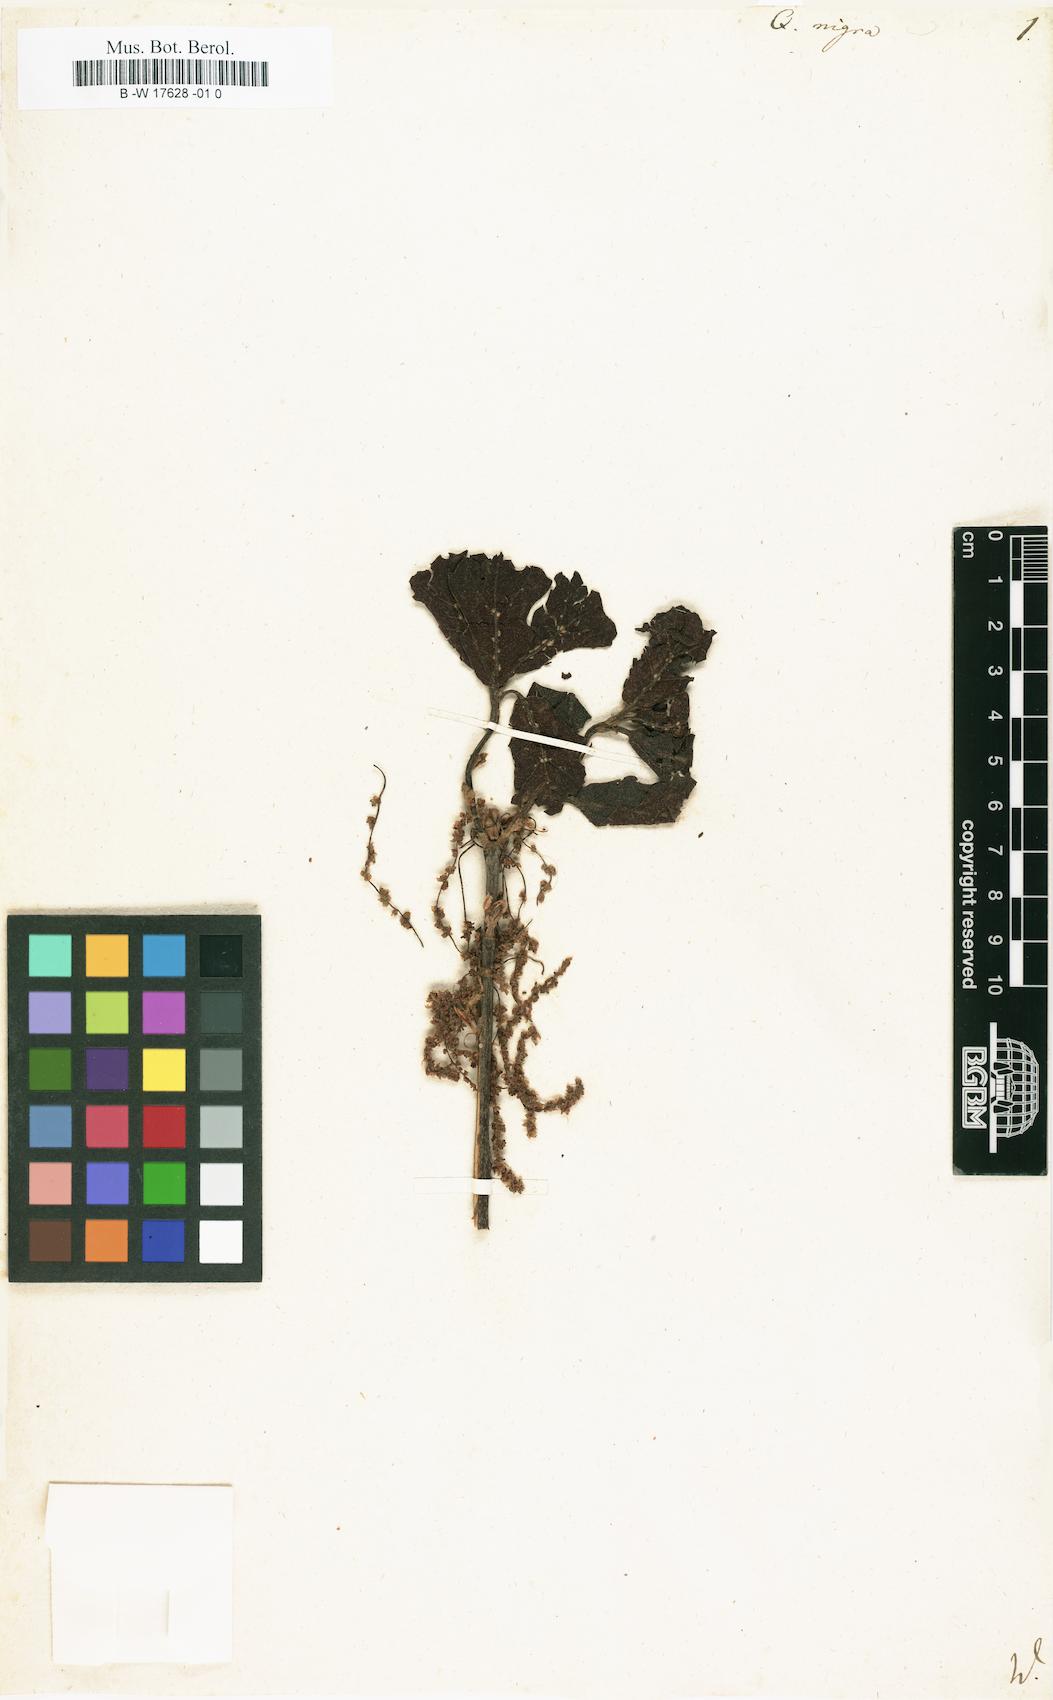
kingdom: Plantae
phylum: Tracheophyta
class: Magnoliopsida
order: Fagales
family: Fagaceae
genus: Quercus
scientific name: Quercus nigra
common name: Water oak
